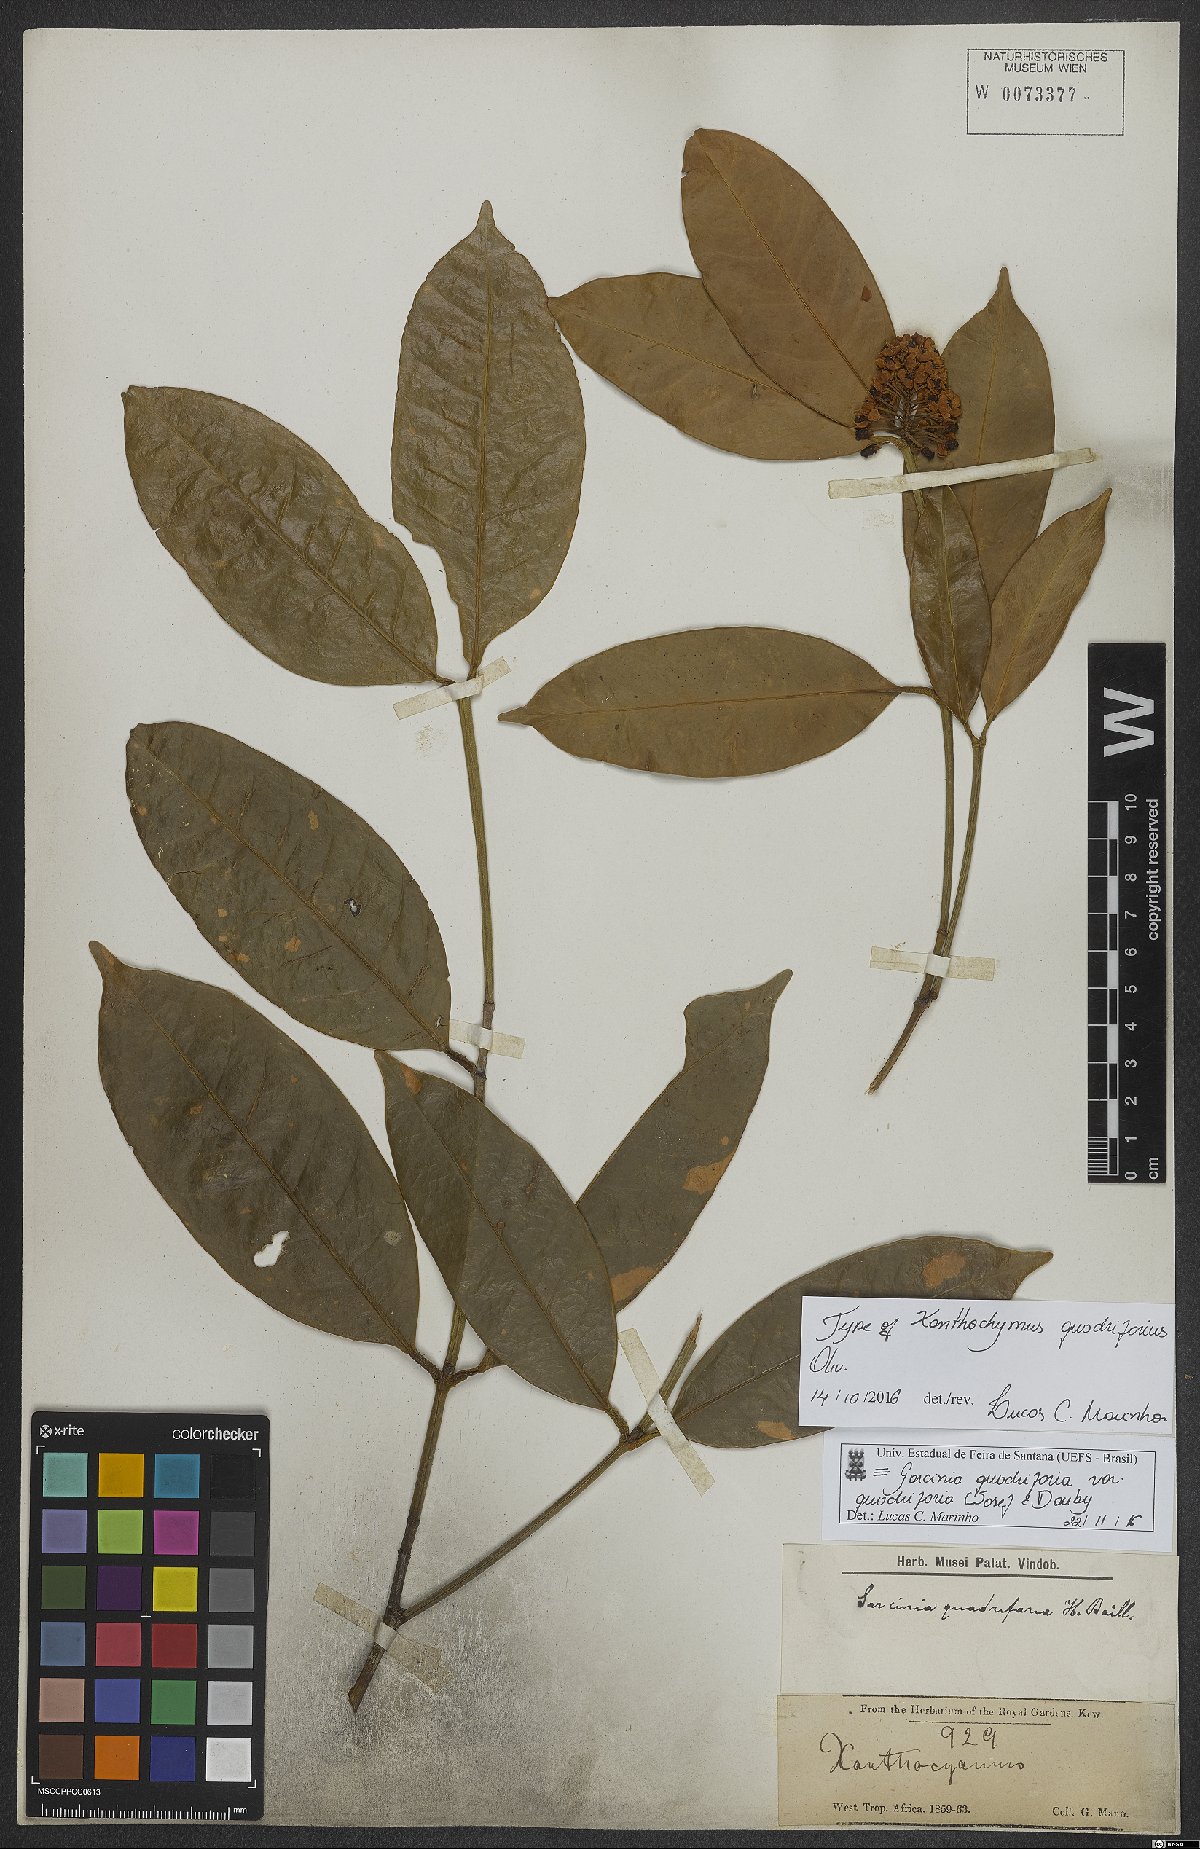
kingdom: Plantae
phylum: Tracheophyta
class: Magnoliopsida
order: Malpighiales
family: Clusiaceae
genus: Garcinia
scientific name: Garcinia quadrifaria
